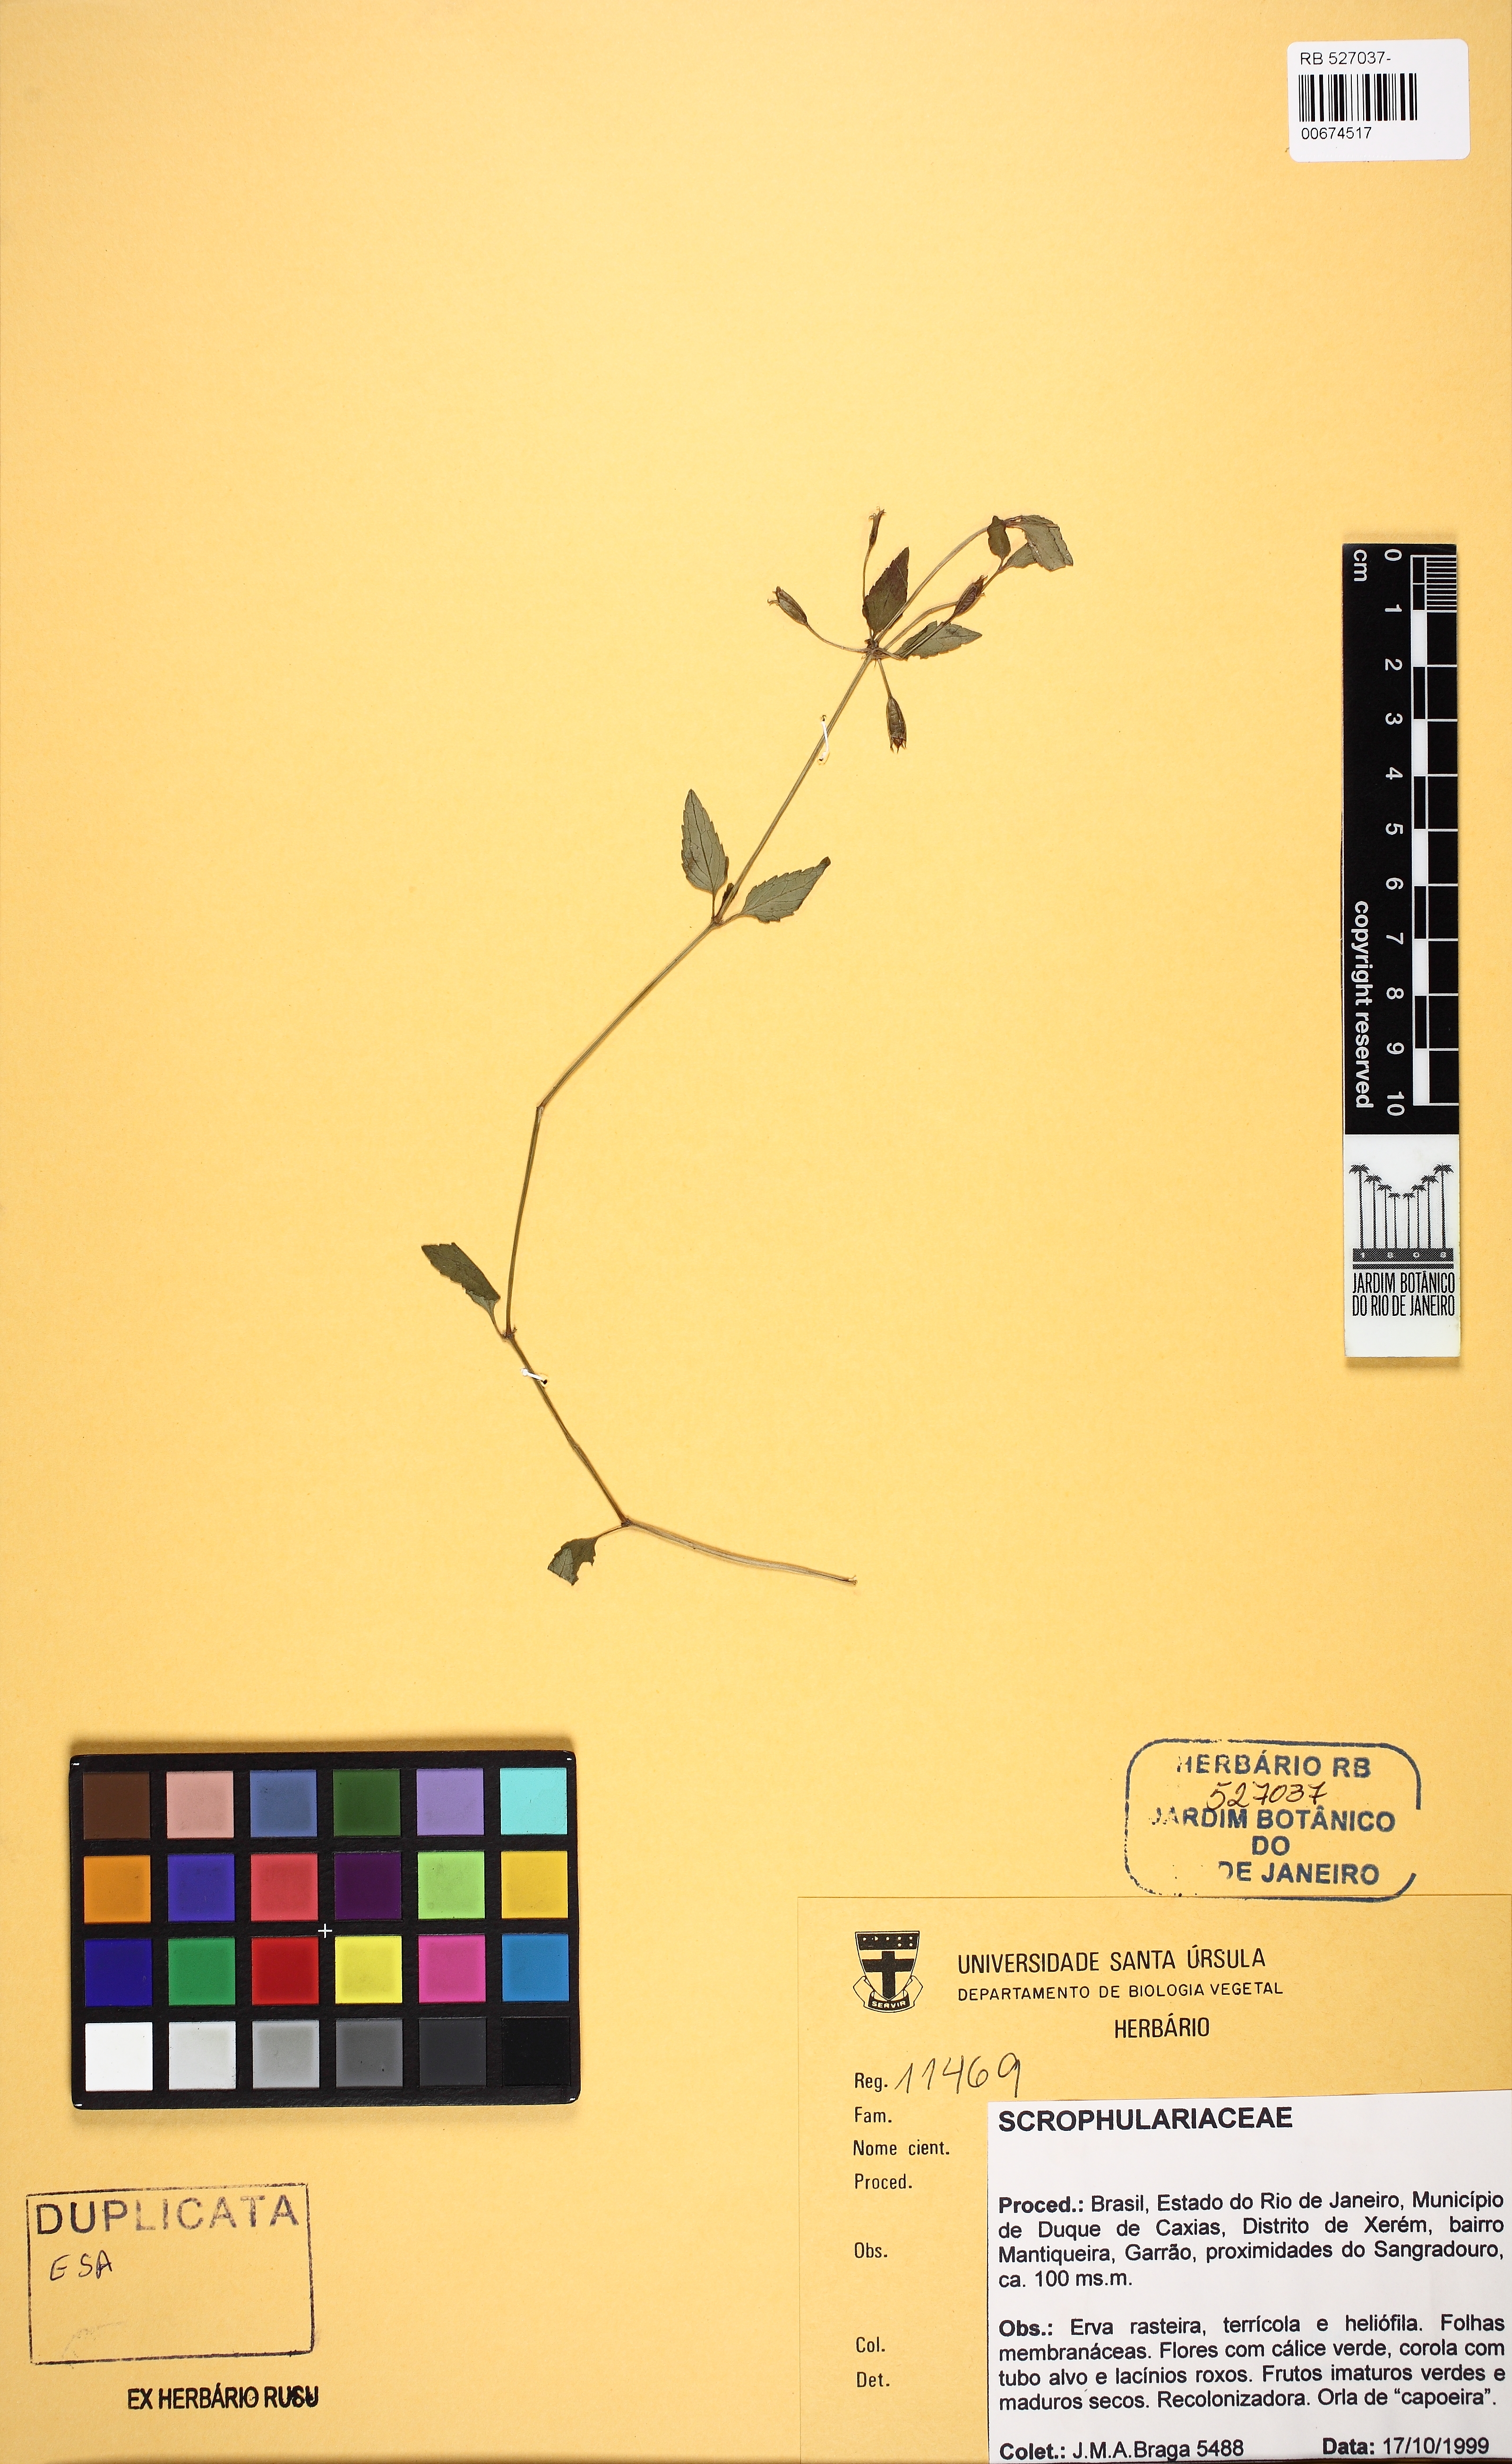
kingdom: Plantae
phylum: Tracheophyta
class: Magnoliopsida
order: Lamiales
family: Linderniaceae
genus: Torenia
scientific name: Torenia thouarsii
